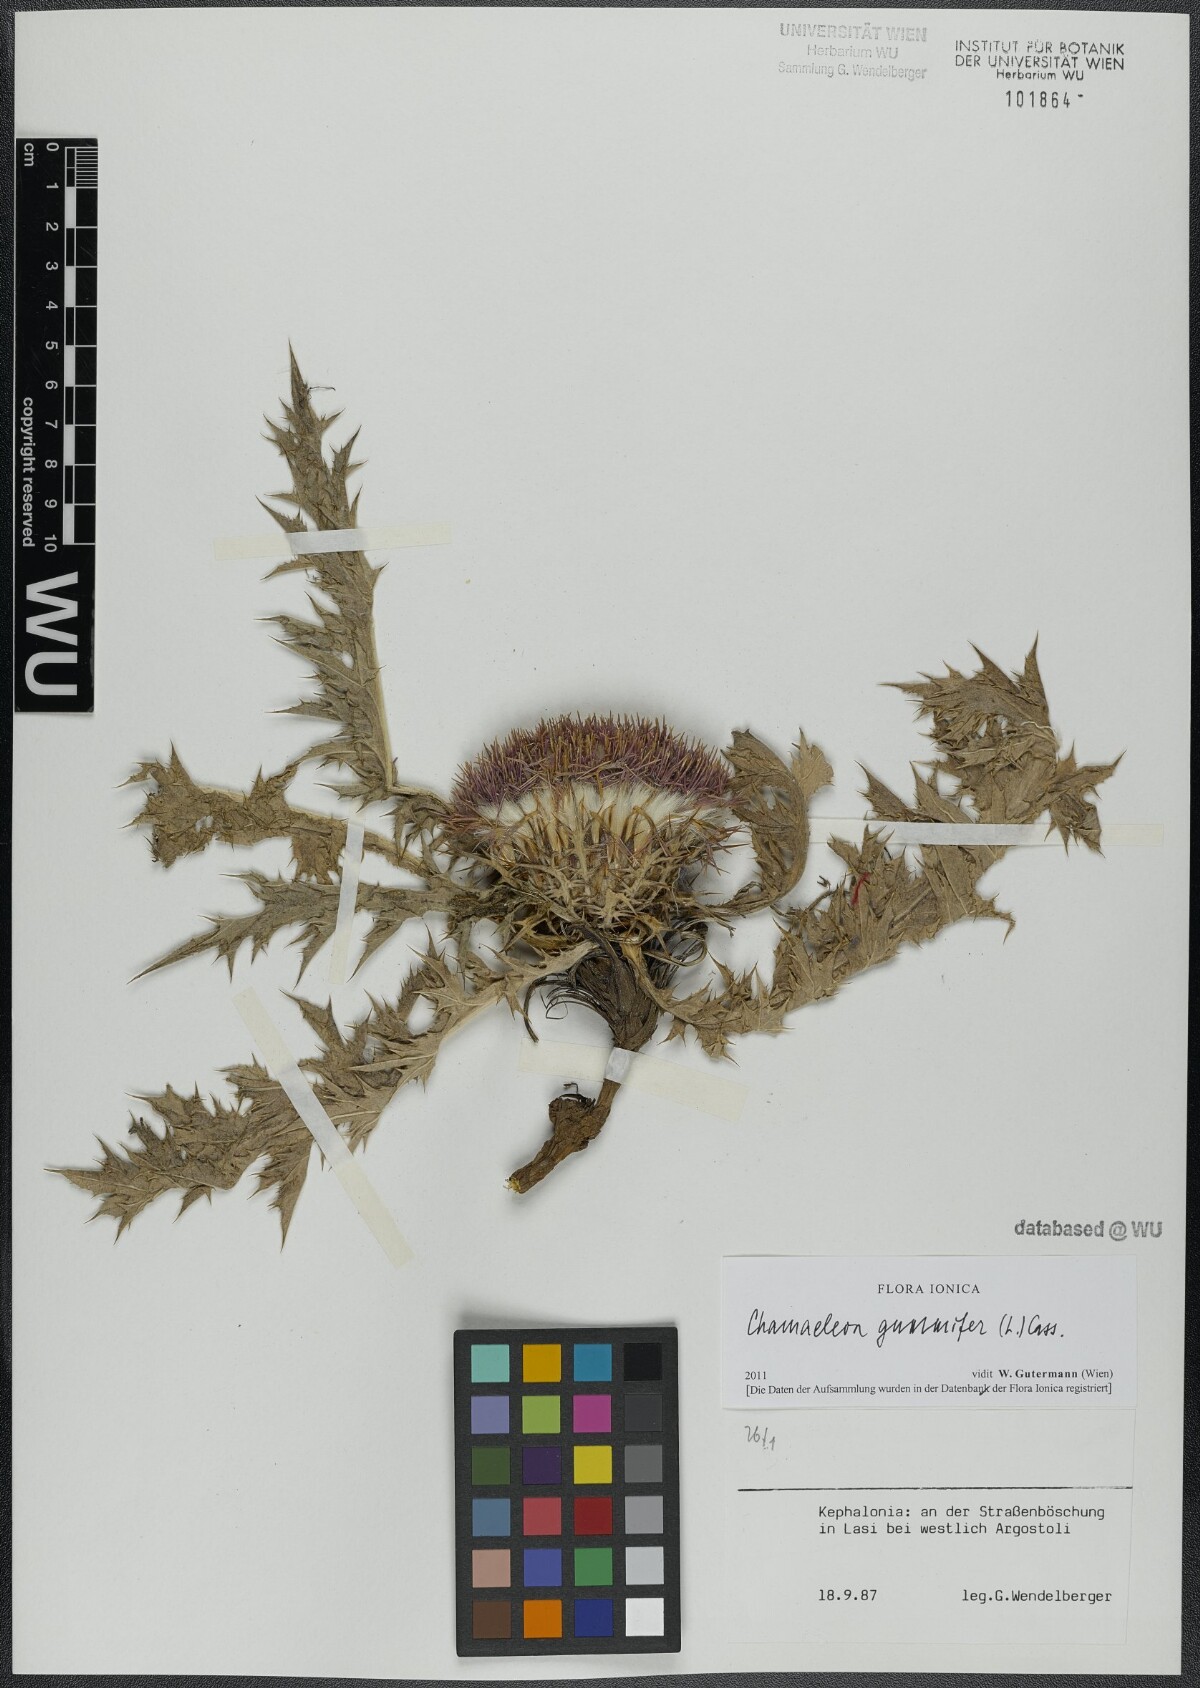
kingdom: Plantae
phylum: Tracheophyta
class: Magnoliopsida
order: Asterales
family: Asteraceae
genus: Chamaeleon
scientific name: Chamaeleon gummifer
